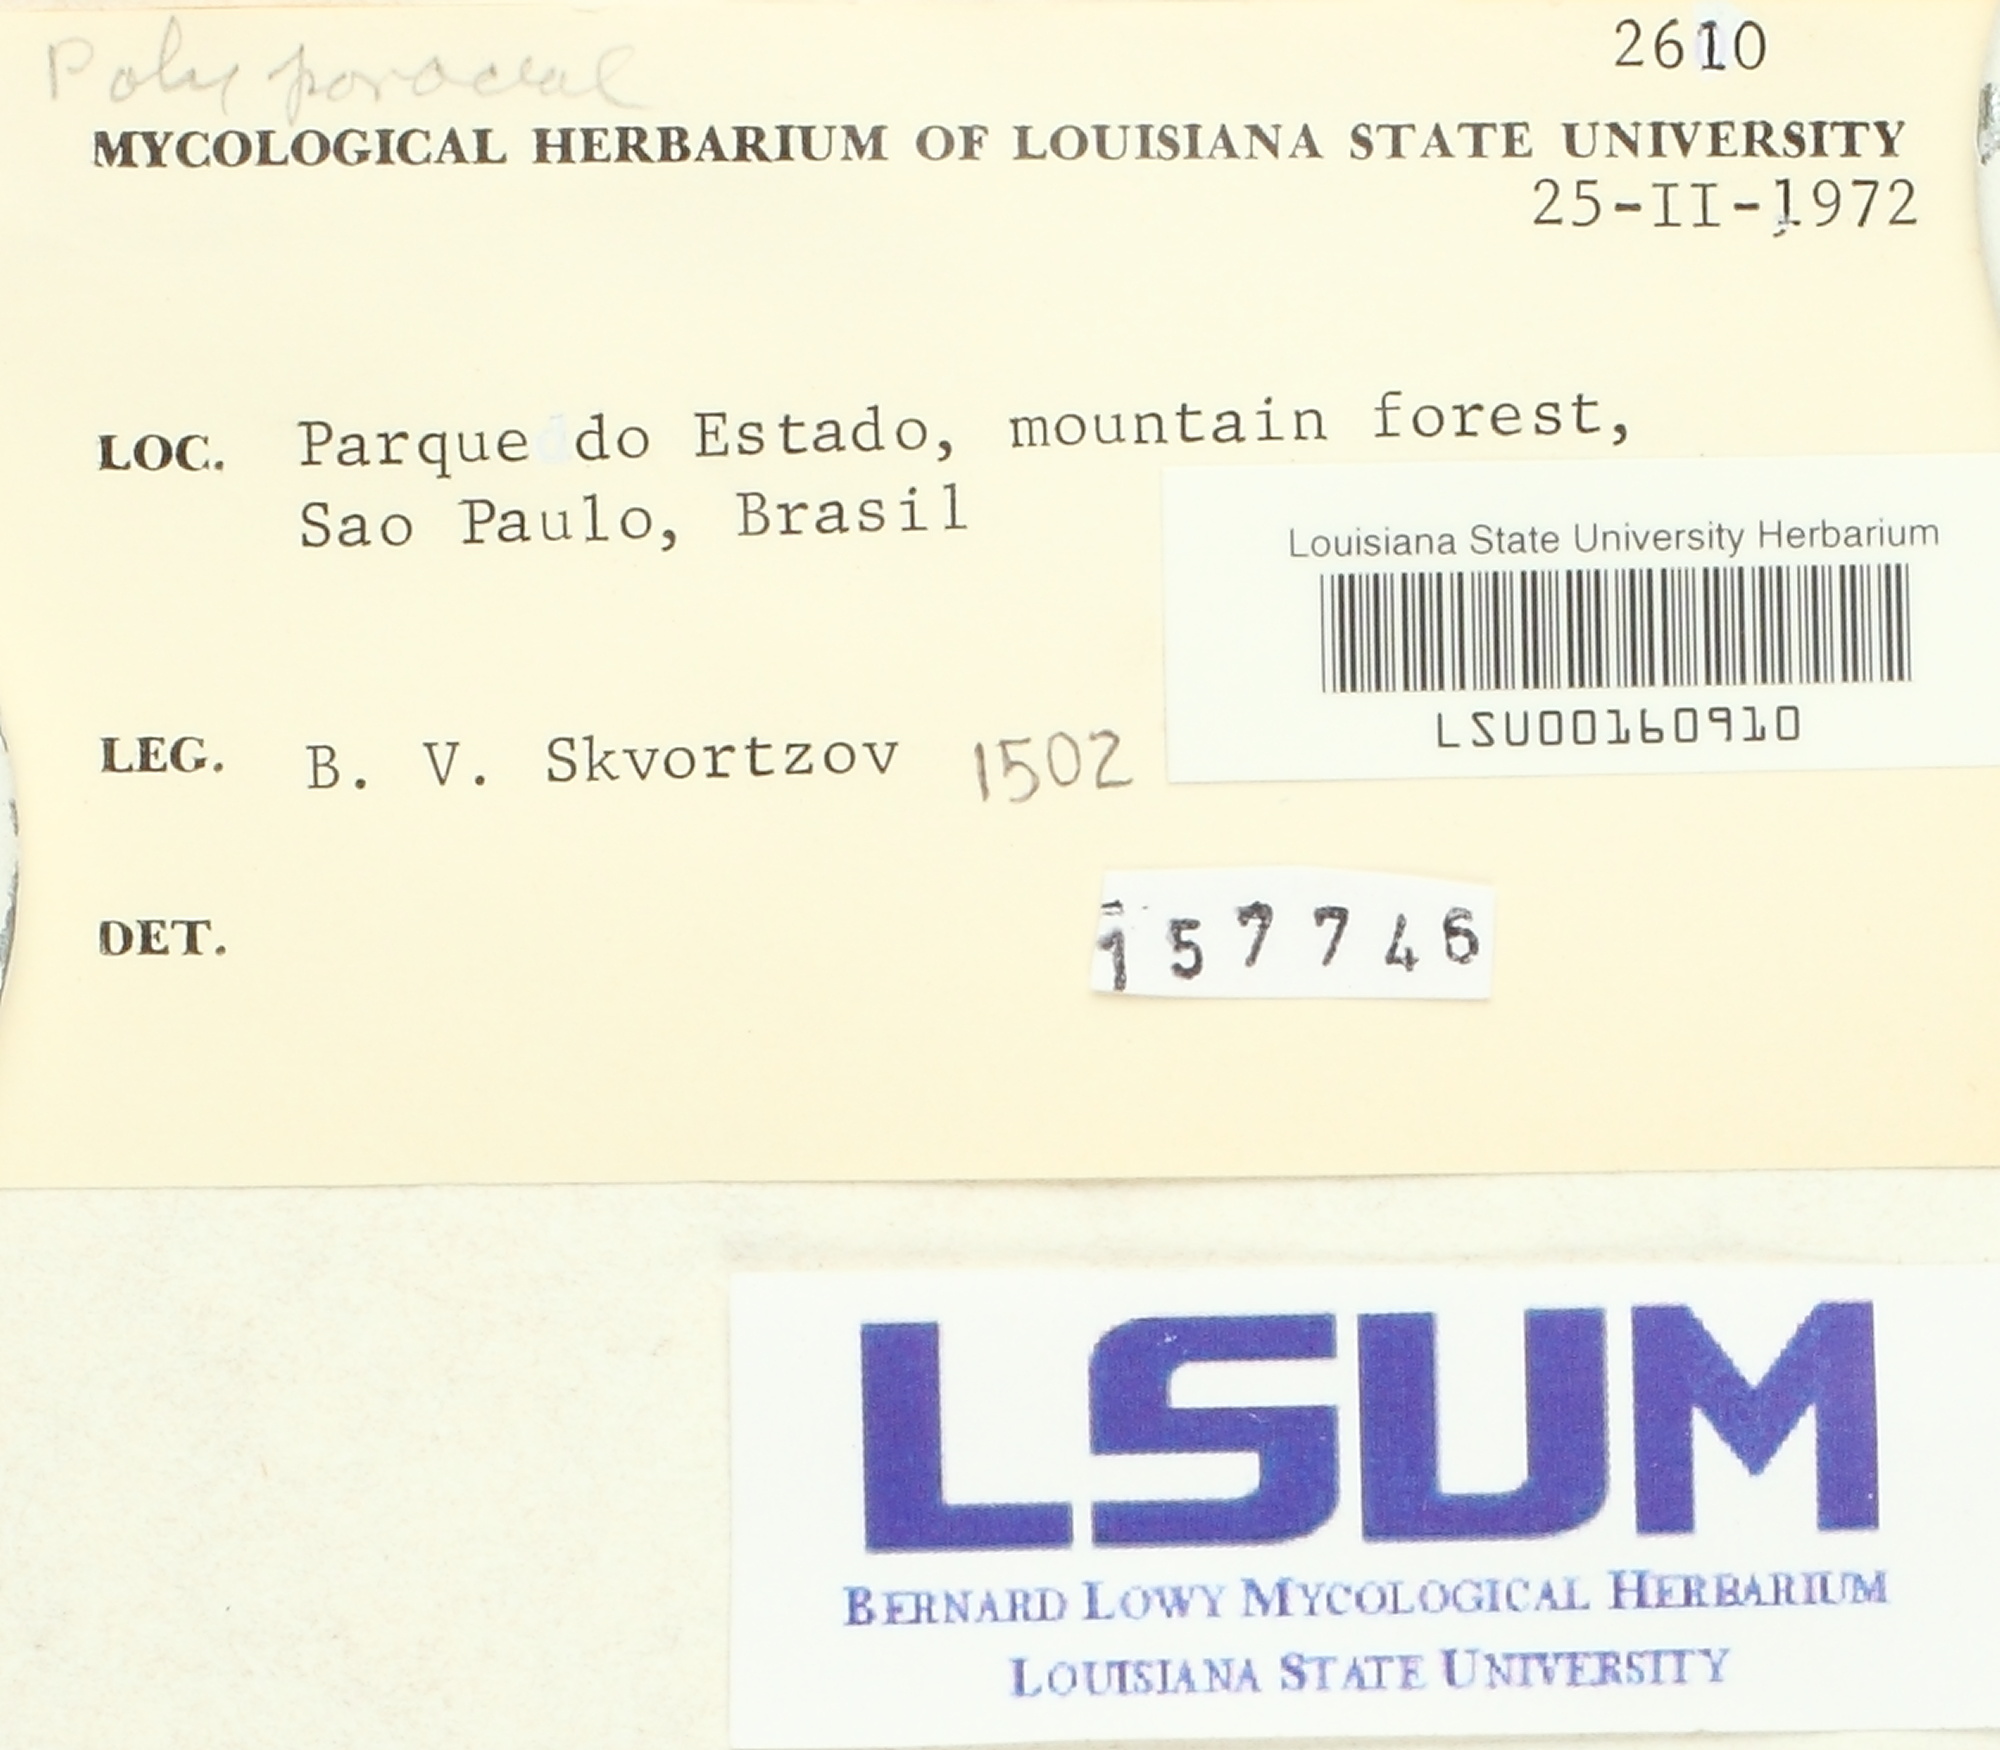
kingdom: Fungi
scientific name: Fungi
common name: Fungi
